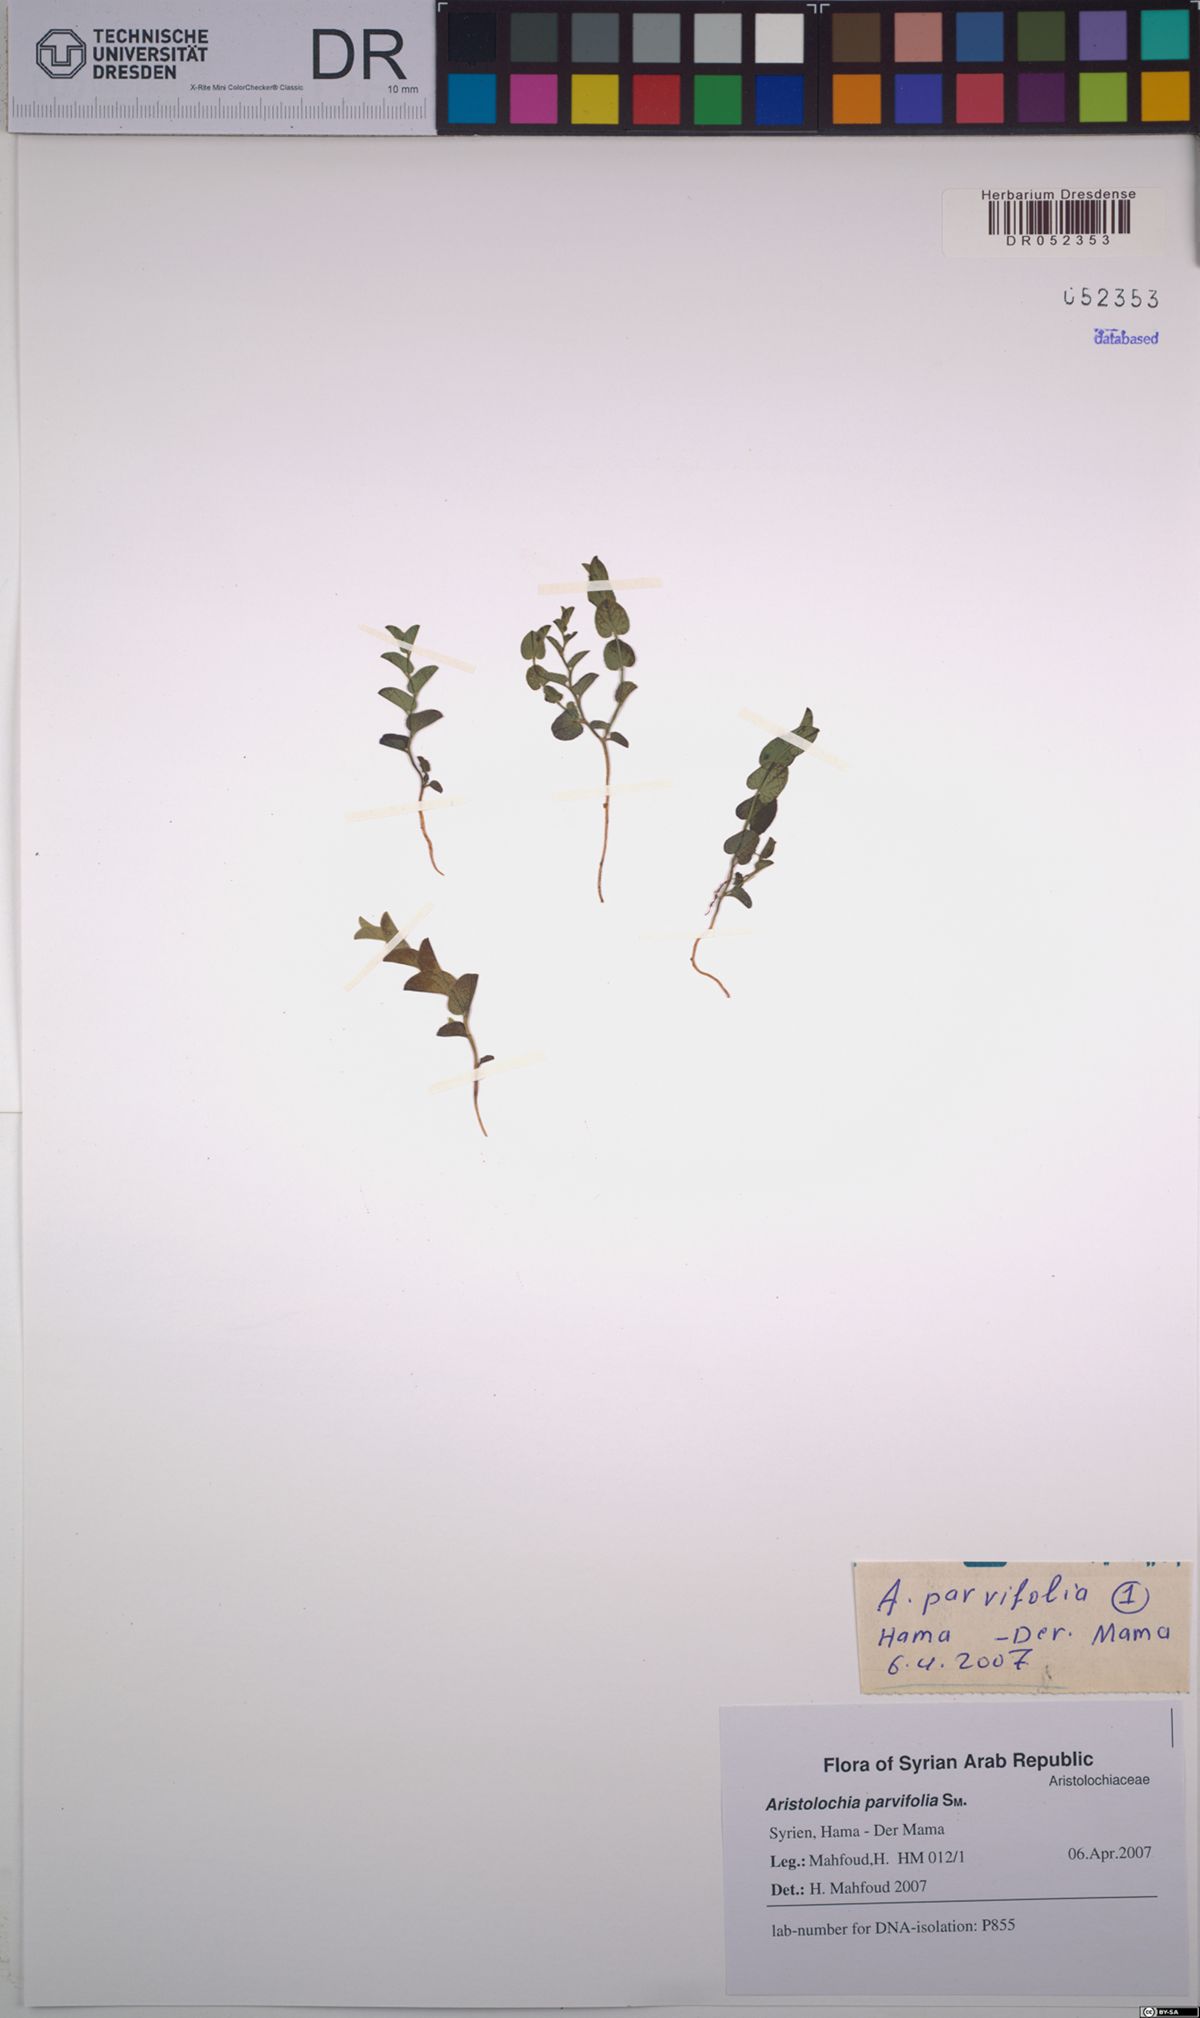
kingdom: Plantae
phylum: Tracheophyta
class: Magnoliopsida
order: Piperales
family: Aristolochiaceae
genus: Aristolochia
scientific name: Aristolochia parvifolia
